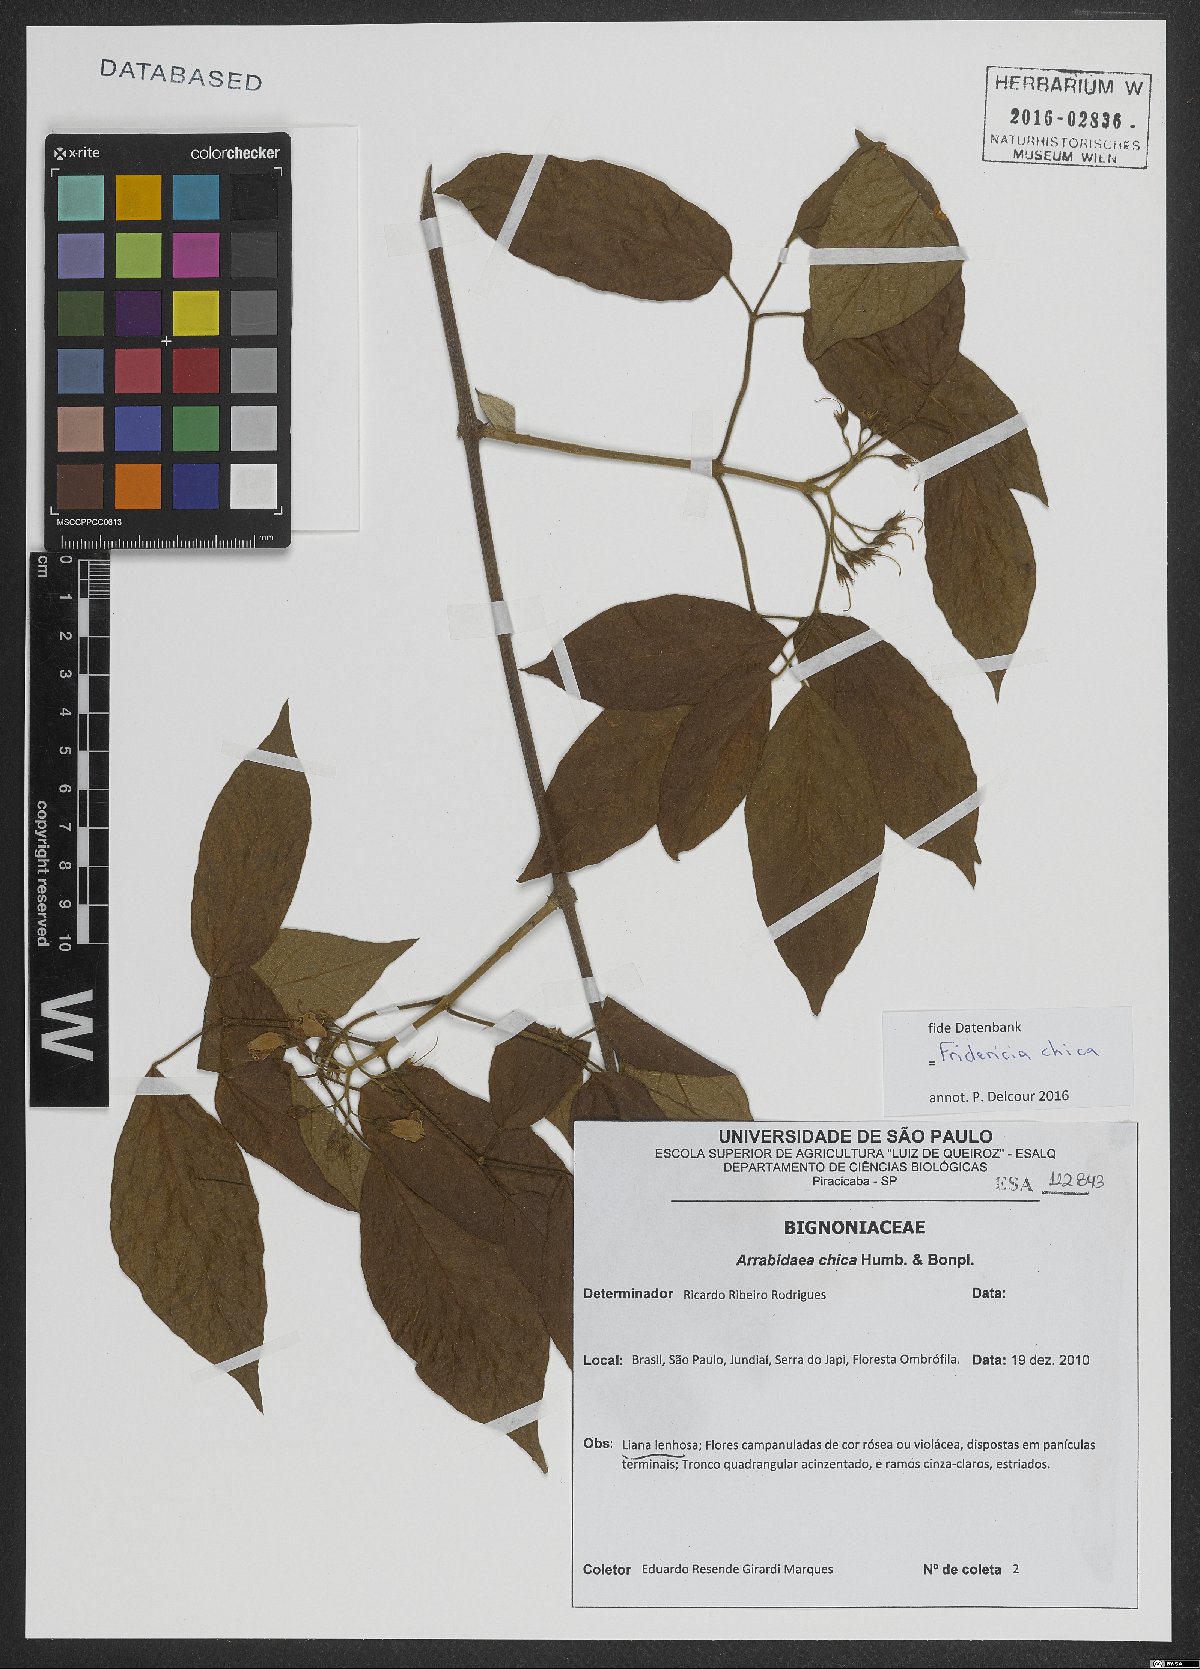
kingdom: Plantae
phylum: Tracheophyta
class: Magnoliopsida
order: Lamiales
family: Bignoniaceae
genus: Fridericia
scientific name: Fridericia chica
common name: Cricketvine
